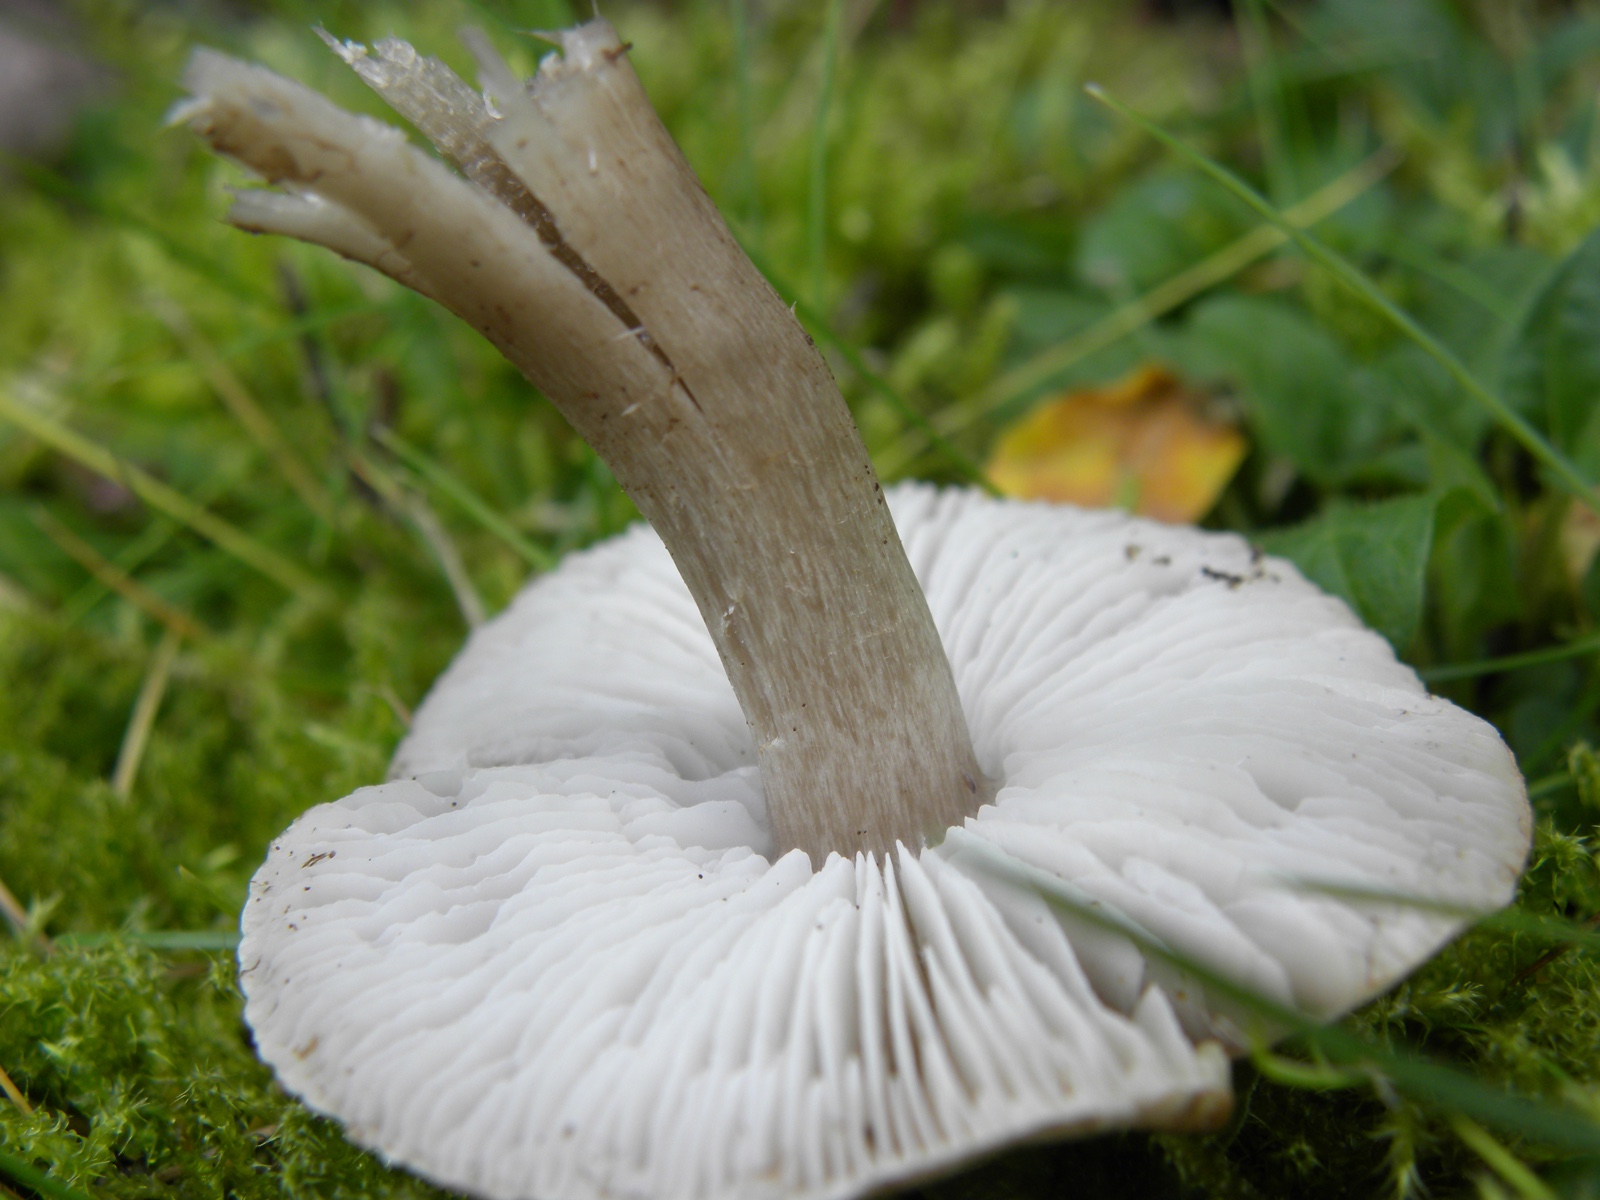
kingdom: Fungi
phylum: Basidiomycota
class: Agaricomycetes
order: Agaricales
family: Tricholomataceae
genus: Tricholoma
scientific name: Tricholoma
